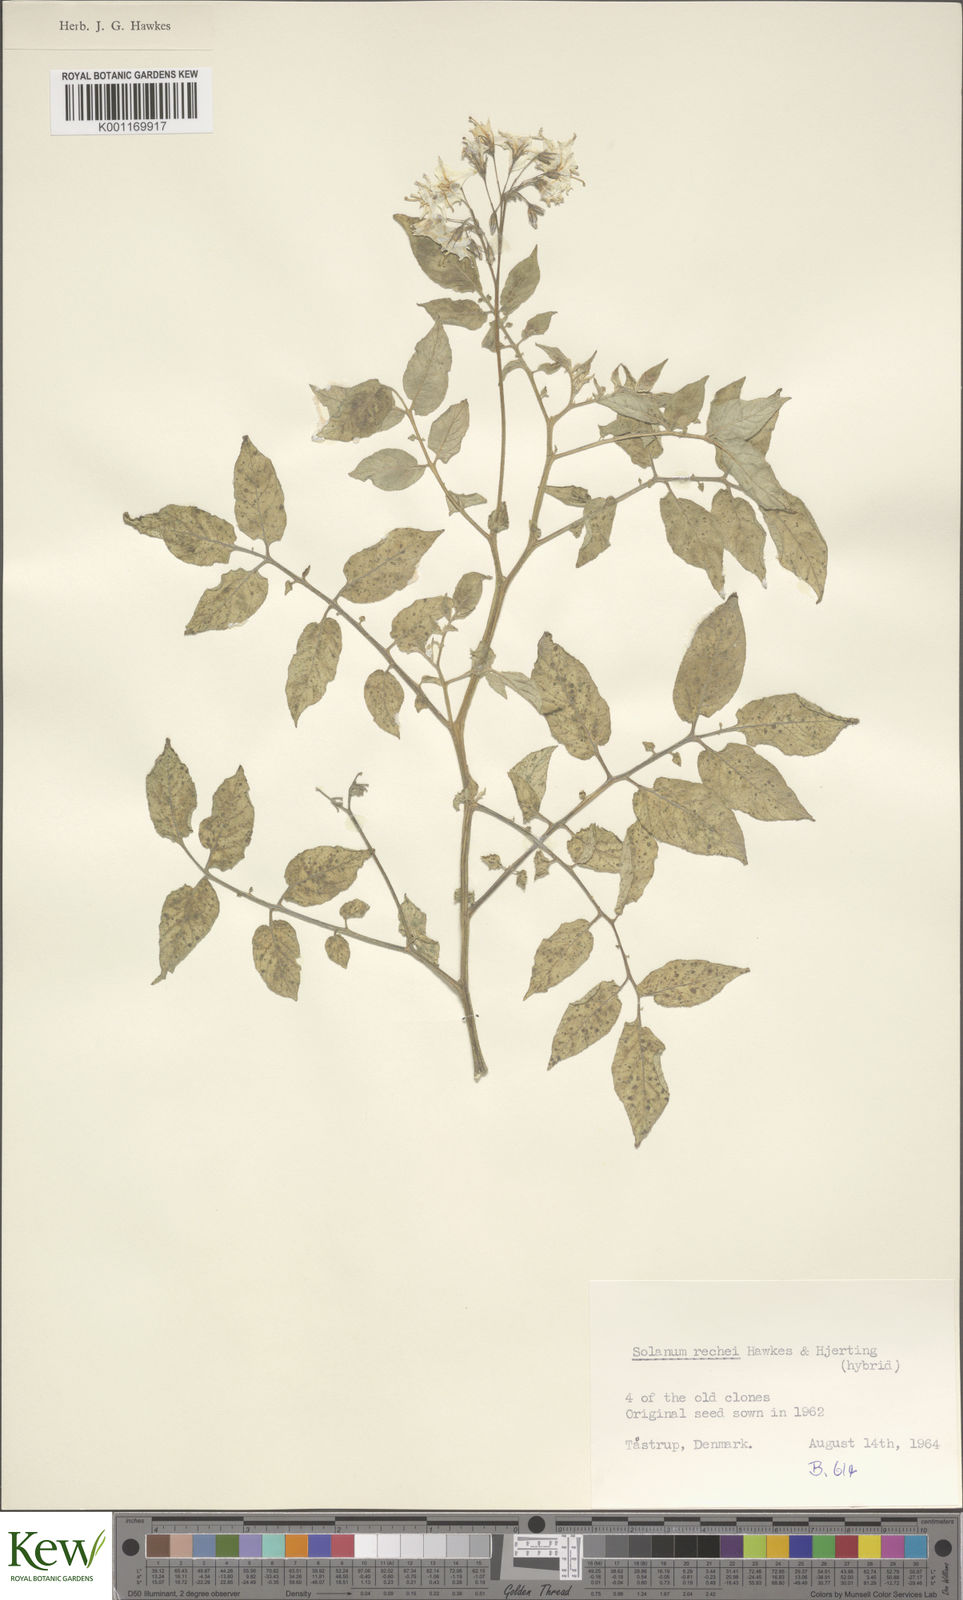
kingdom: Plantae
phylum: Tracheophyta
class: Magnoliopsida
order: Solanales
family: Solanaceae
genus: Solanum
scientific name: Solanum rechei
